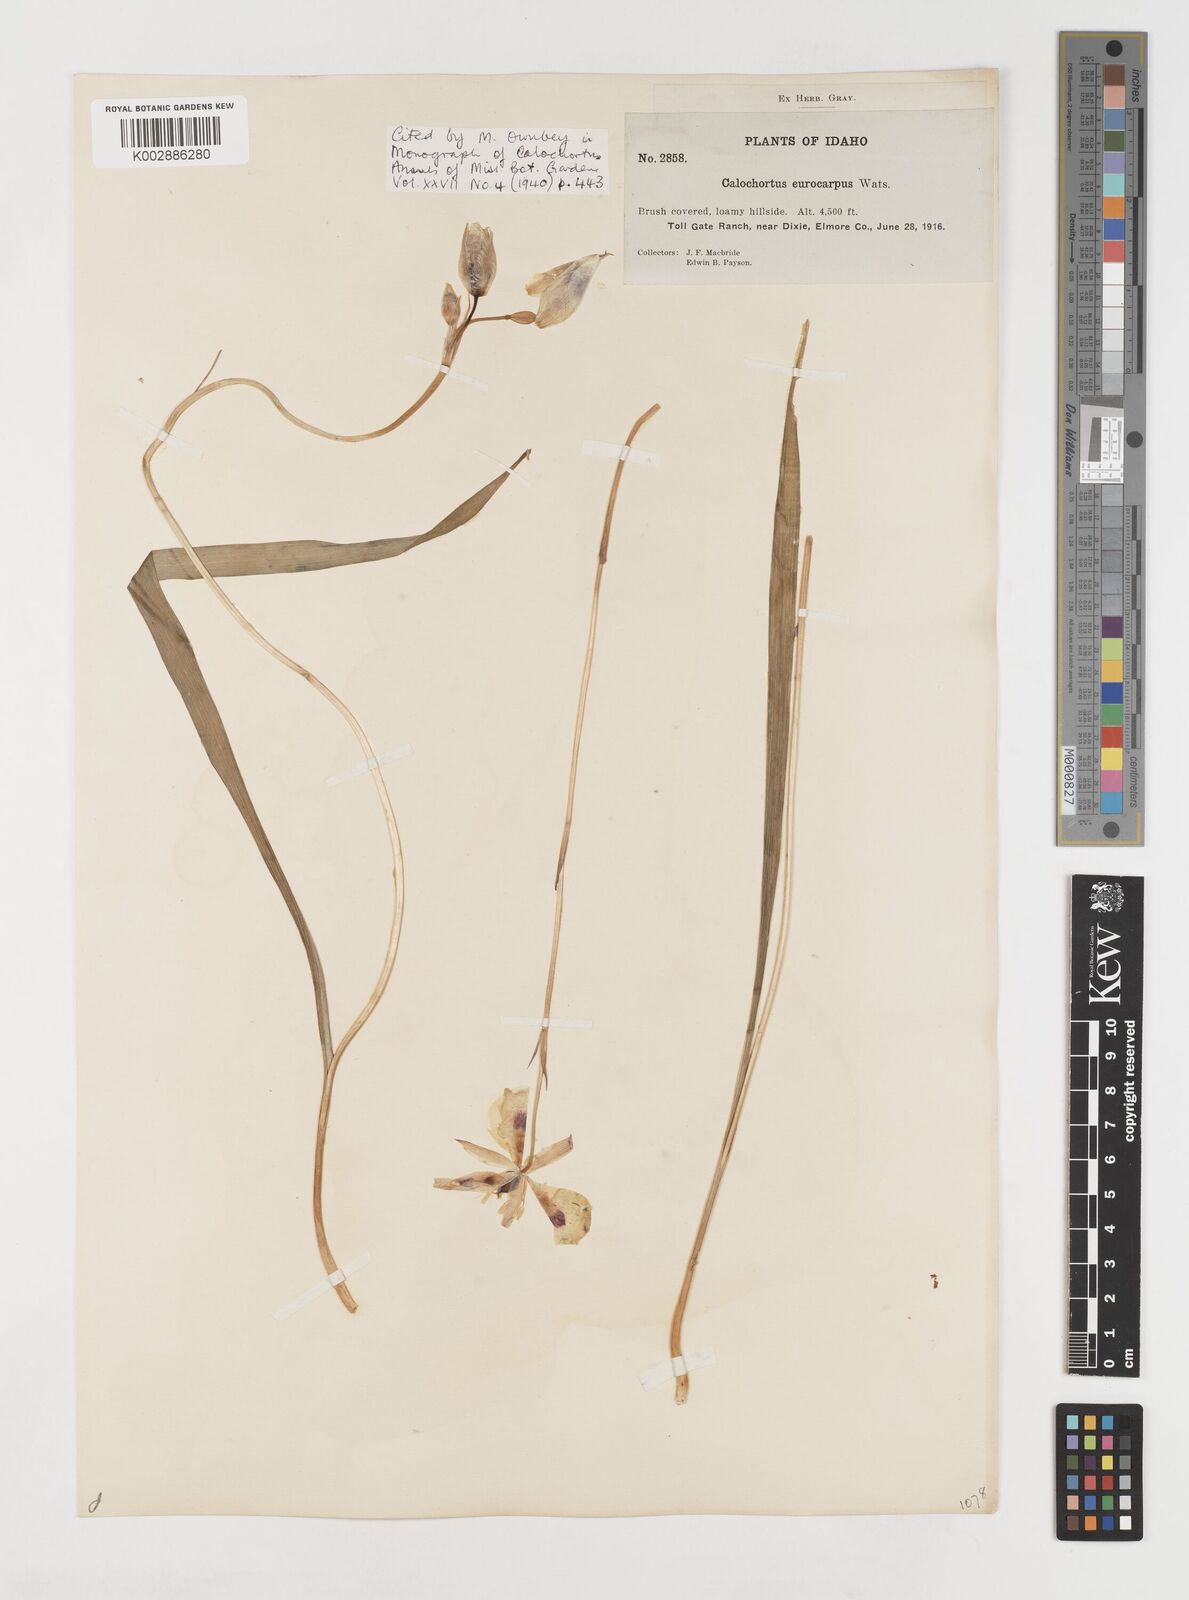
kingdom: Plantae
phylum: Tracheophyta
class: Liliopsida
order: Liliales
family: Liliaceae
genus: Calochortus
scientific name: Calochortus eurycarpus
